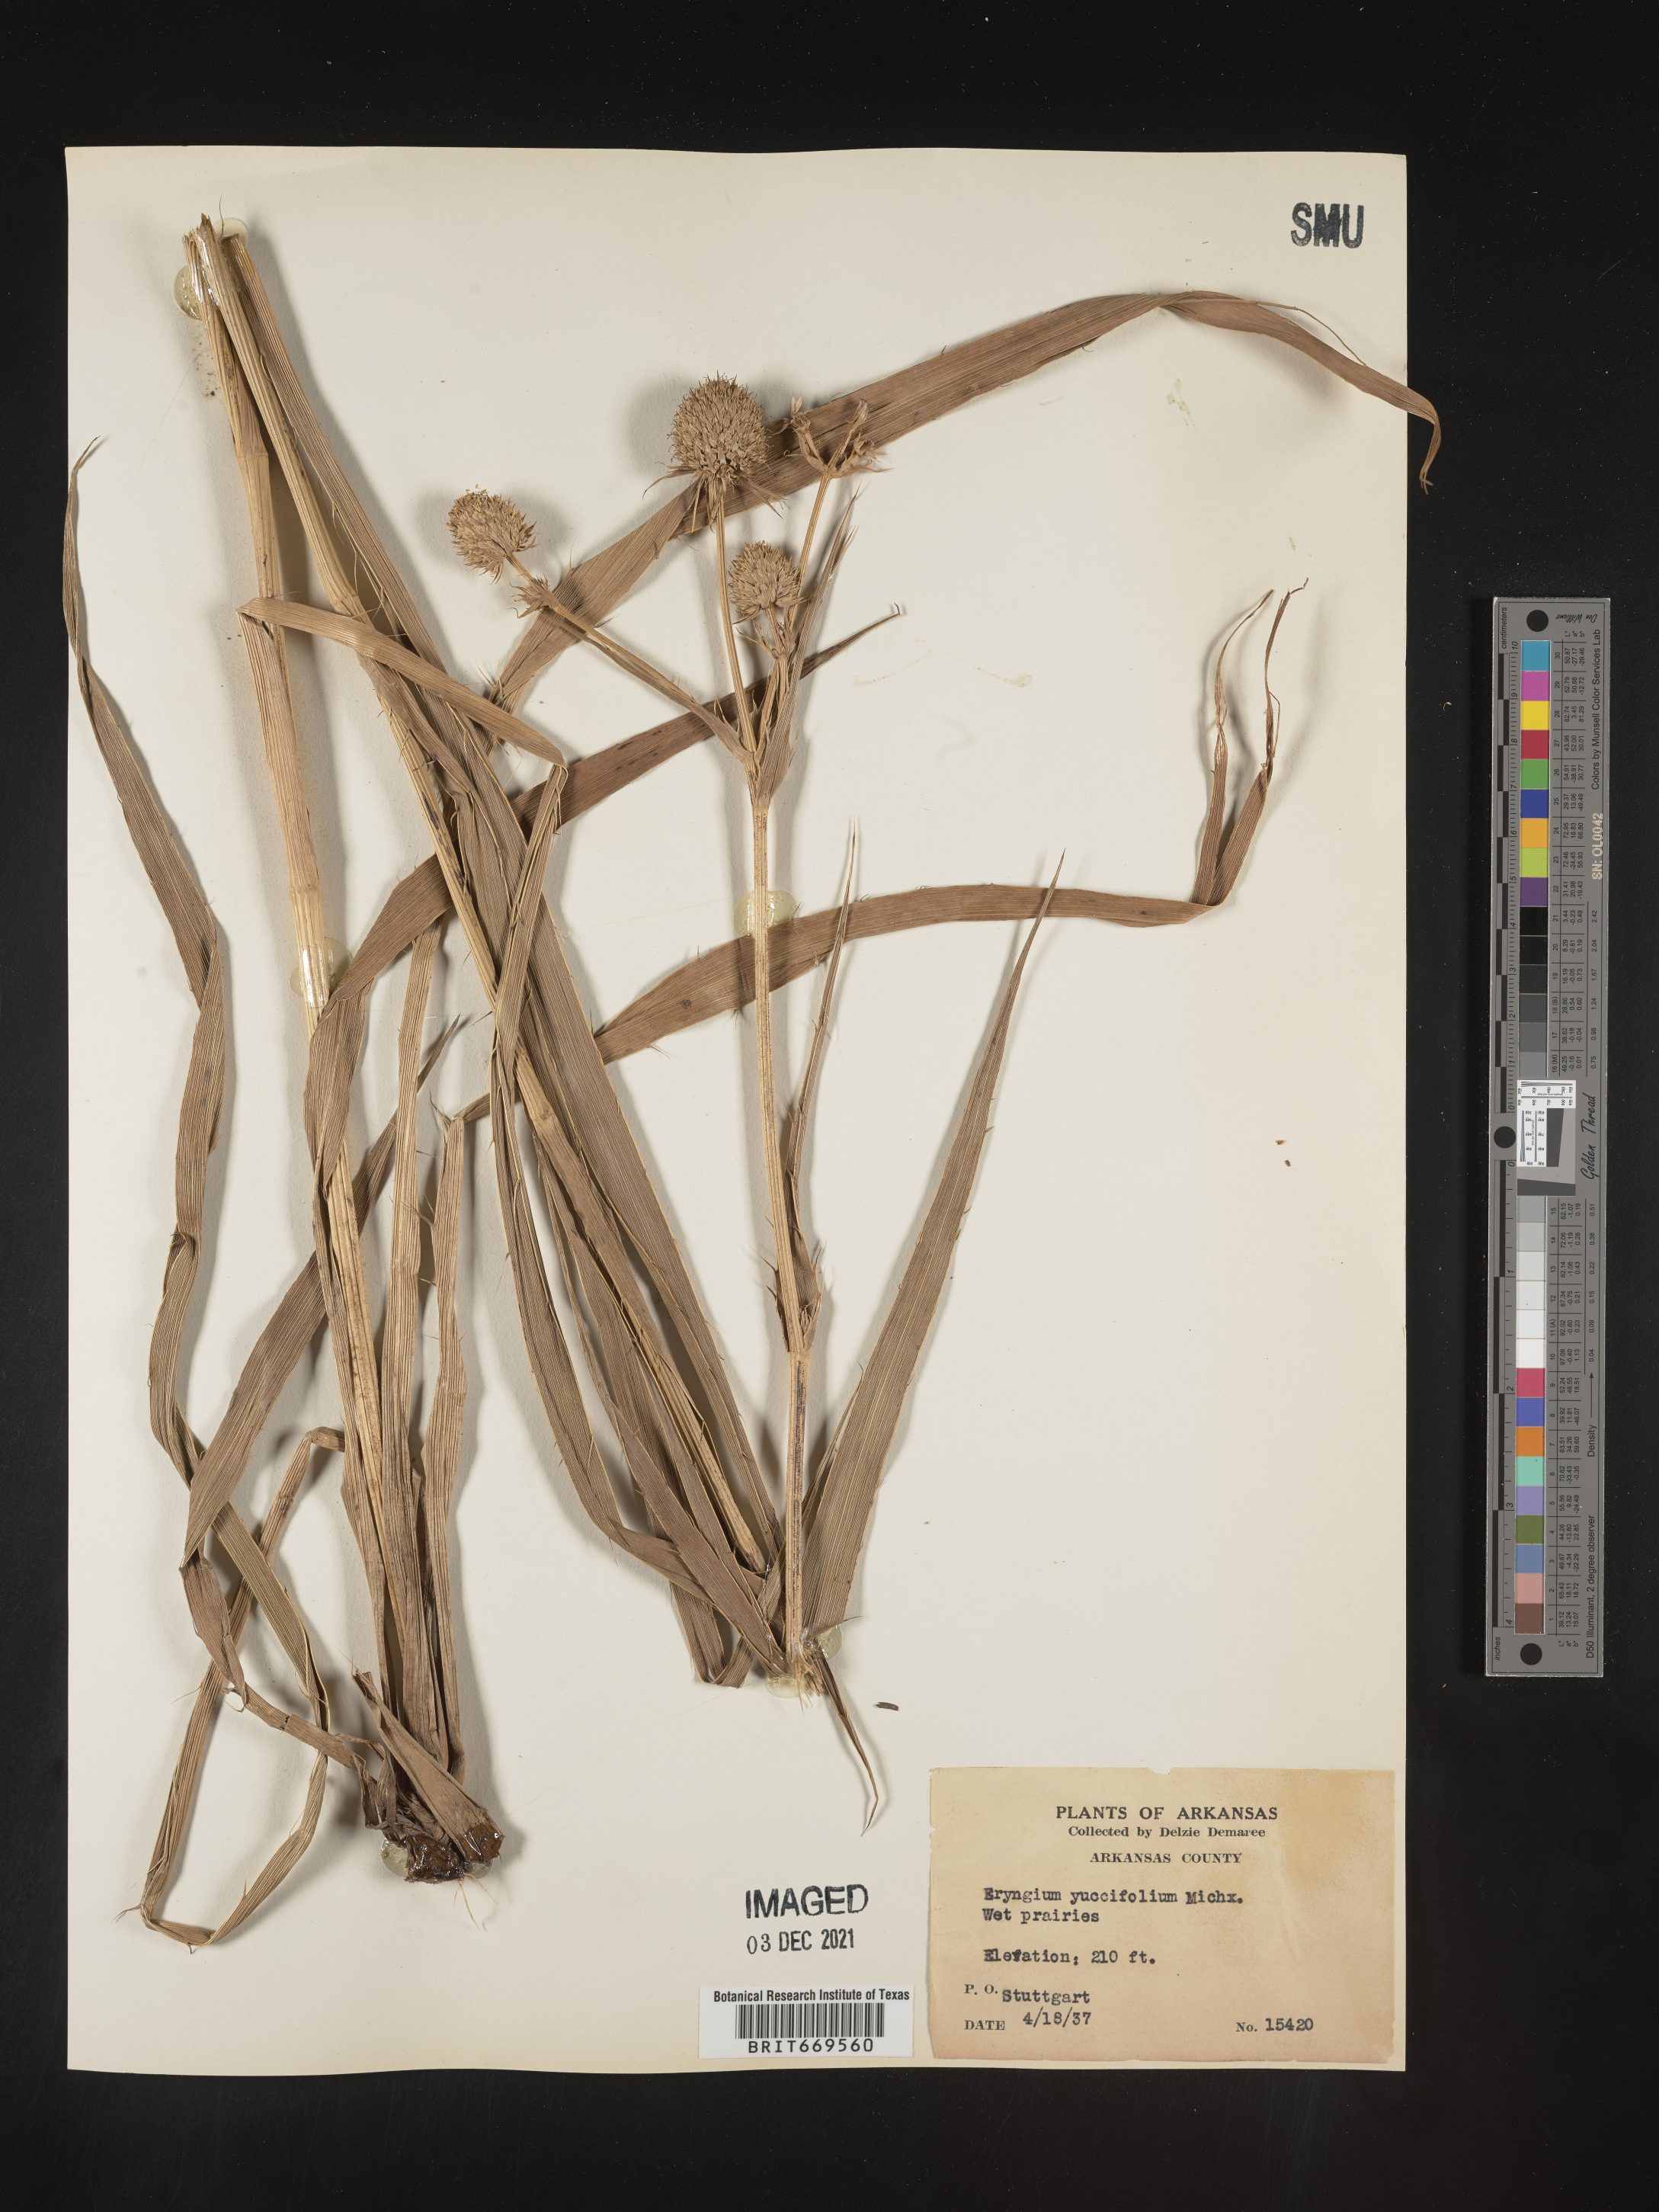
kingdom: Plantae
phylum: Tracheophyta
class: Magnoliopsida
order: Apiales
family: Apiaceae
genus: Eryngium
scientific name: Eryngium yuccifolium
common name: Button eryngo
